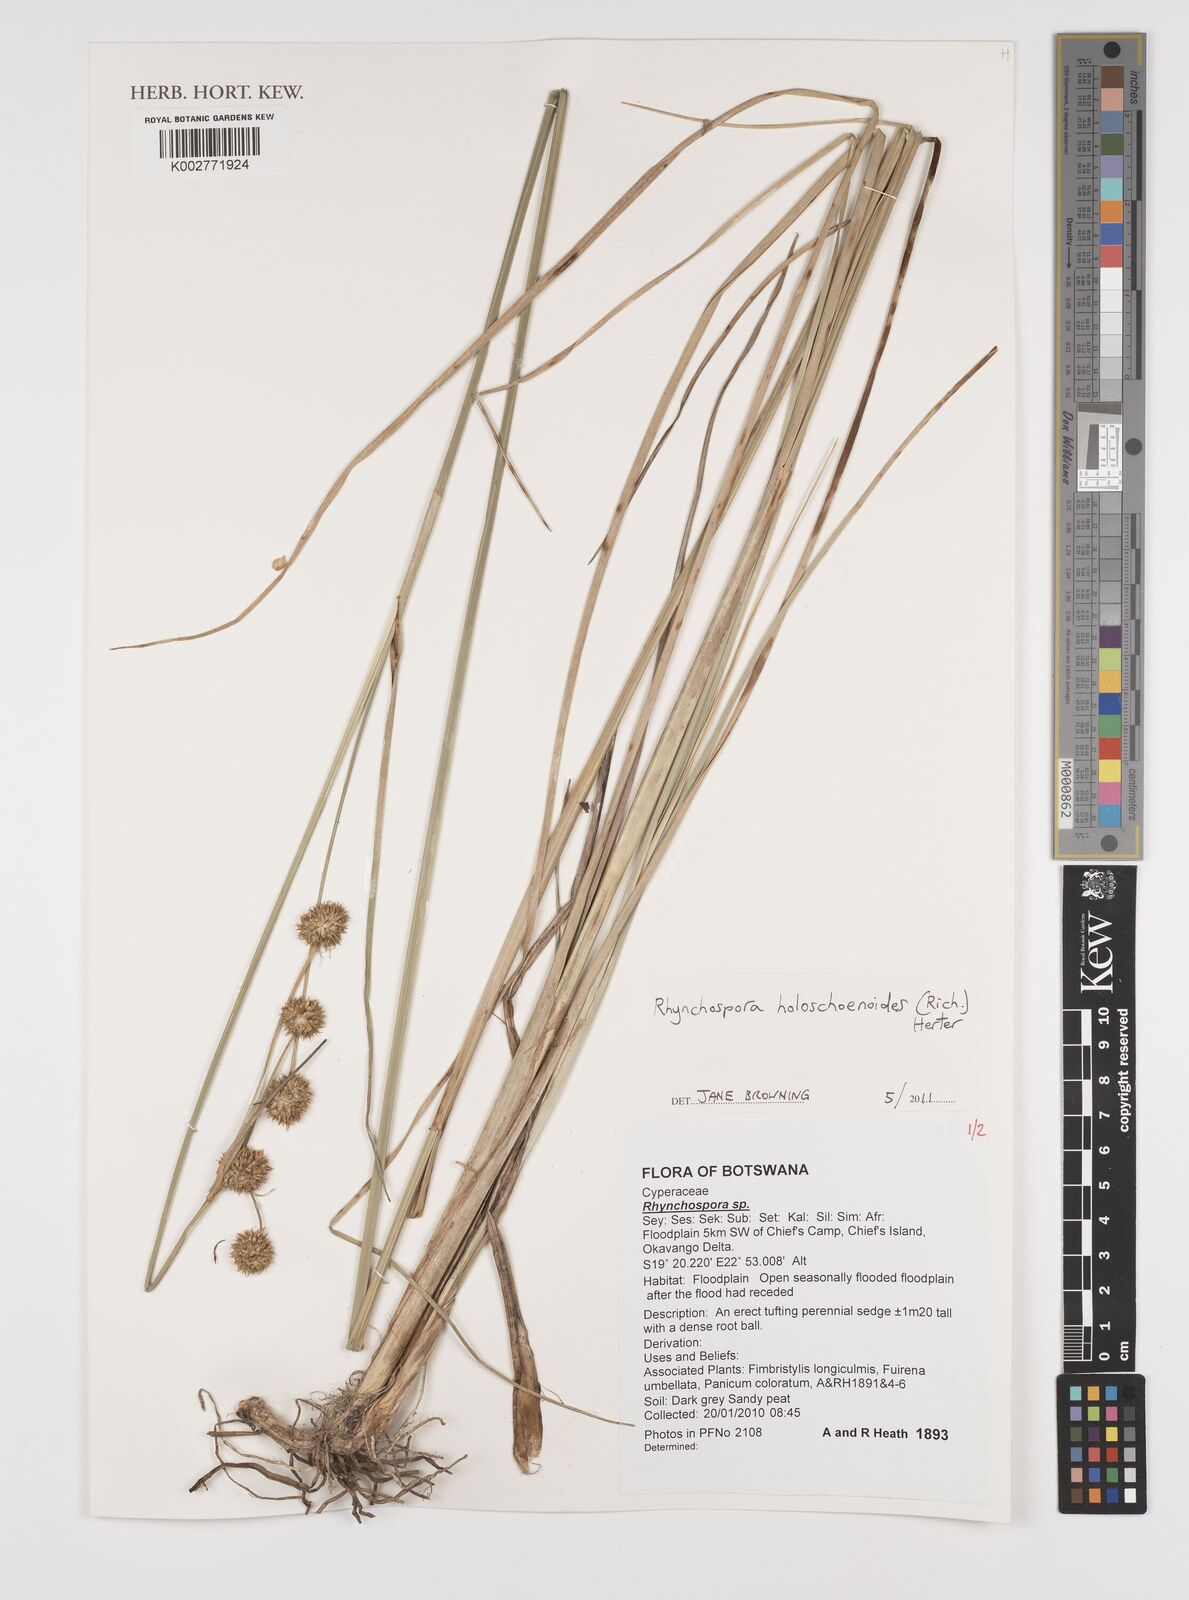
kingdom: Plantae
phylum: Tracheophyta
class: Liliopsida
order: Poales
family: Cyperaceae
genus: Rhynchospora
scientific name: Rhynchospora holoschoenoides
